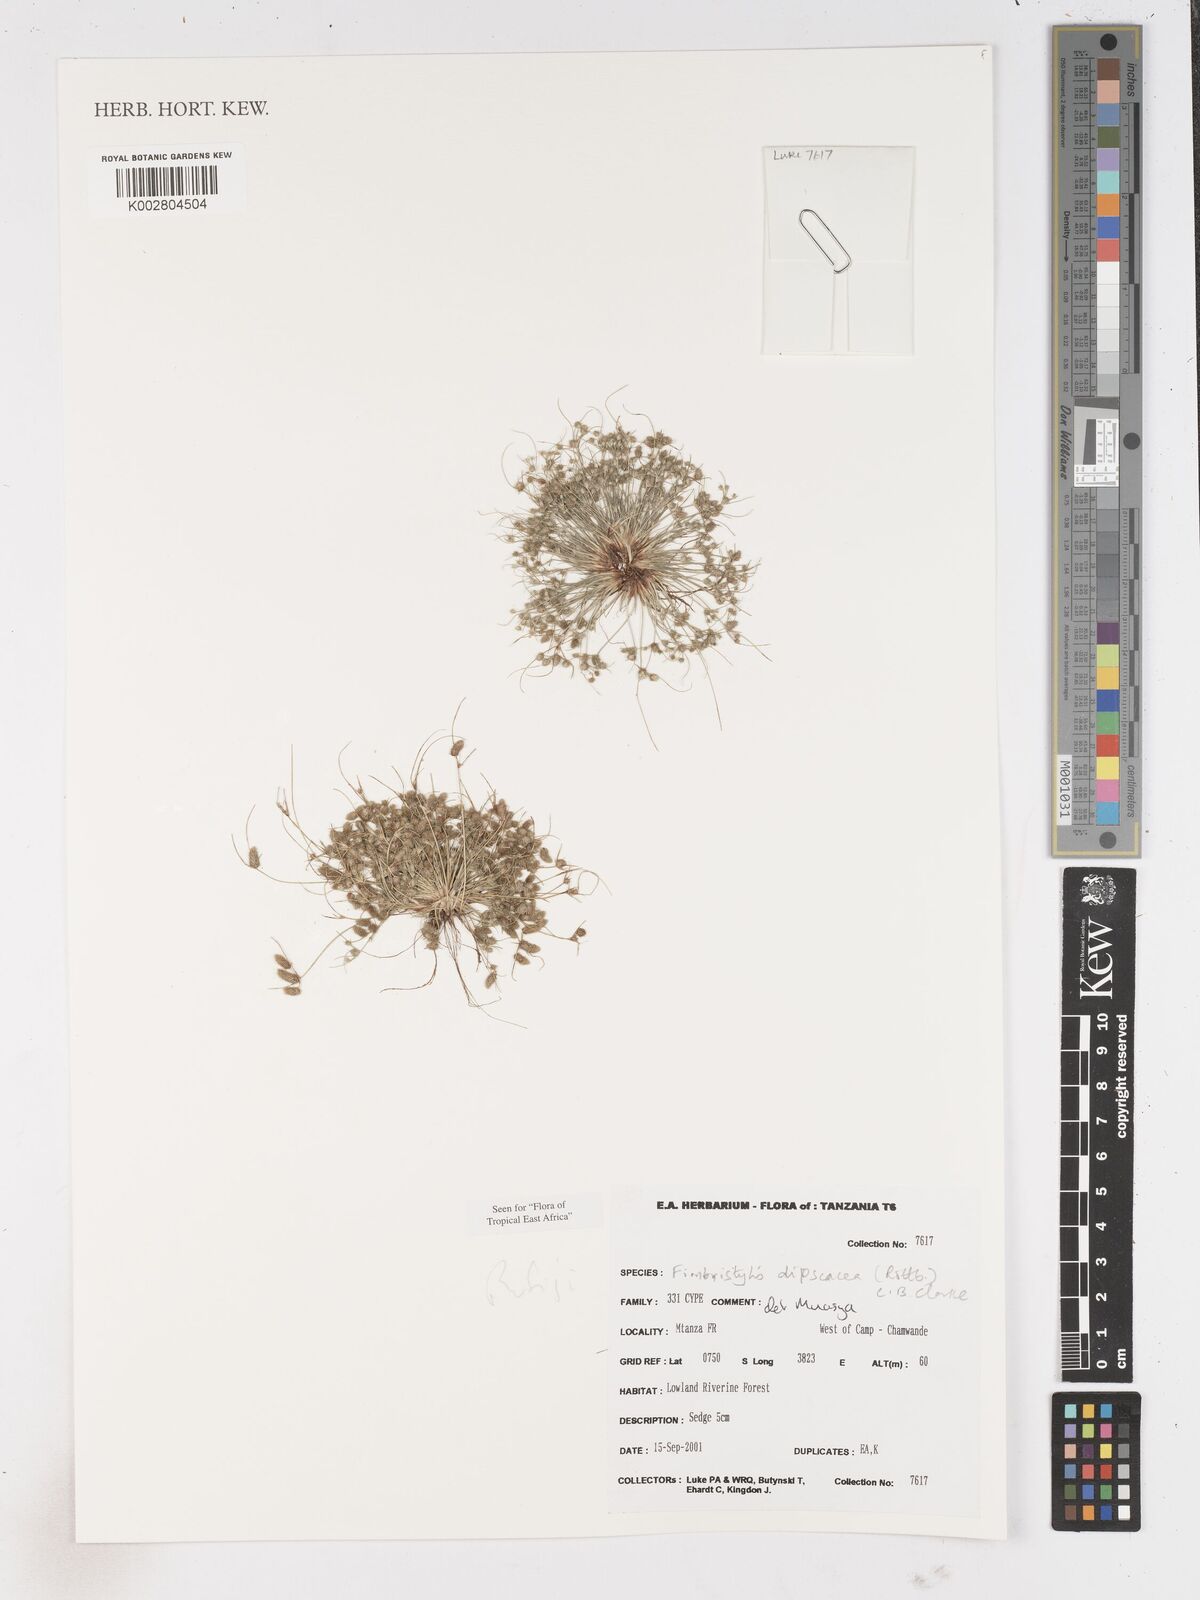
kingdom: Plantae
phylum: Tracheophyta
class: Liliopsida
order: Poales
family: Cyperaceae
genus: Fimbristylis
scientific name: Fimbristylis dipsacea
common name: Harper's fimbristylis
